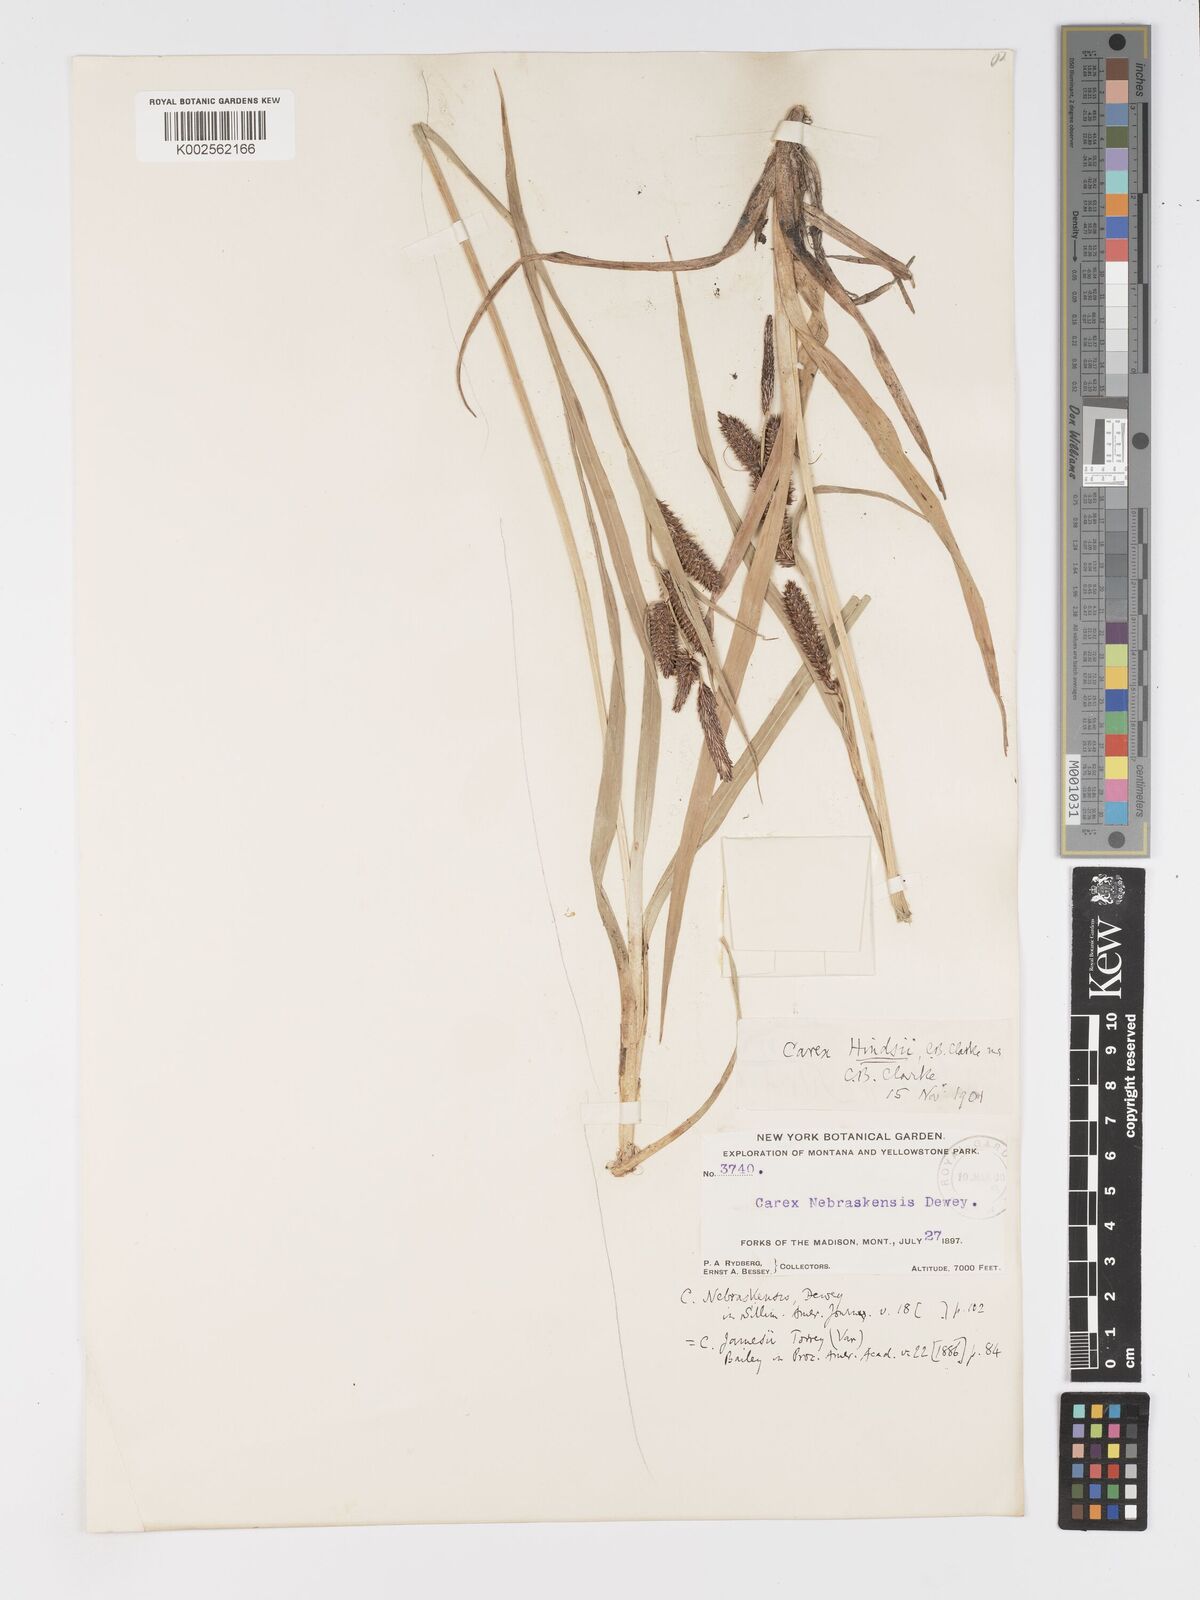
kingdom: Plantae
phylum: Tracheophyta
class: Liliopsida
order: Poales
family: Cyperaceae
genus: Carex
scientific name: Carex kelloggii
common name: Kellogg's sedge
